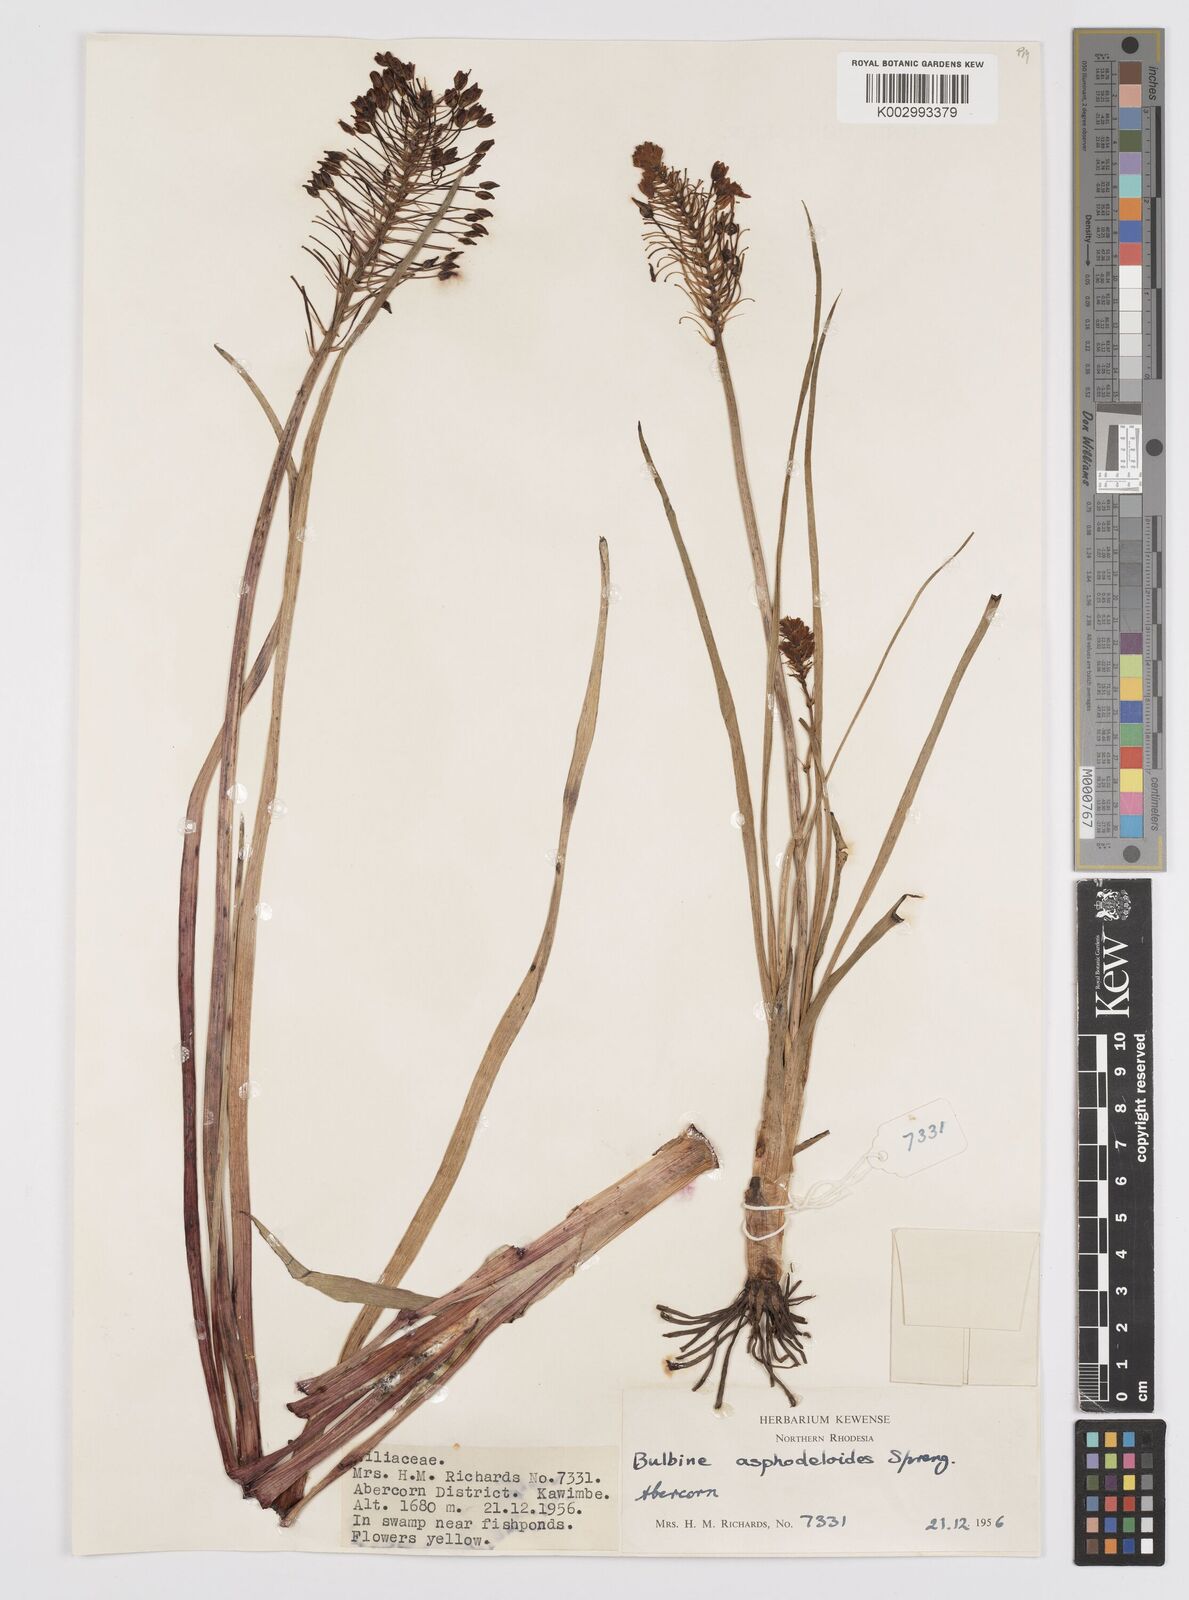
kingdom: Plantae
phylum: Tracheophyta
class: Liliopsida
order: Asparagales
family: Asphodelaceae
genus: Bulbine
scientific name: Bulbine abyssinica
